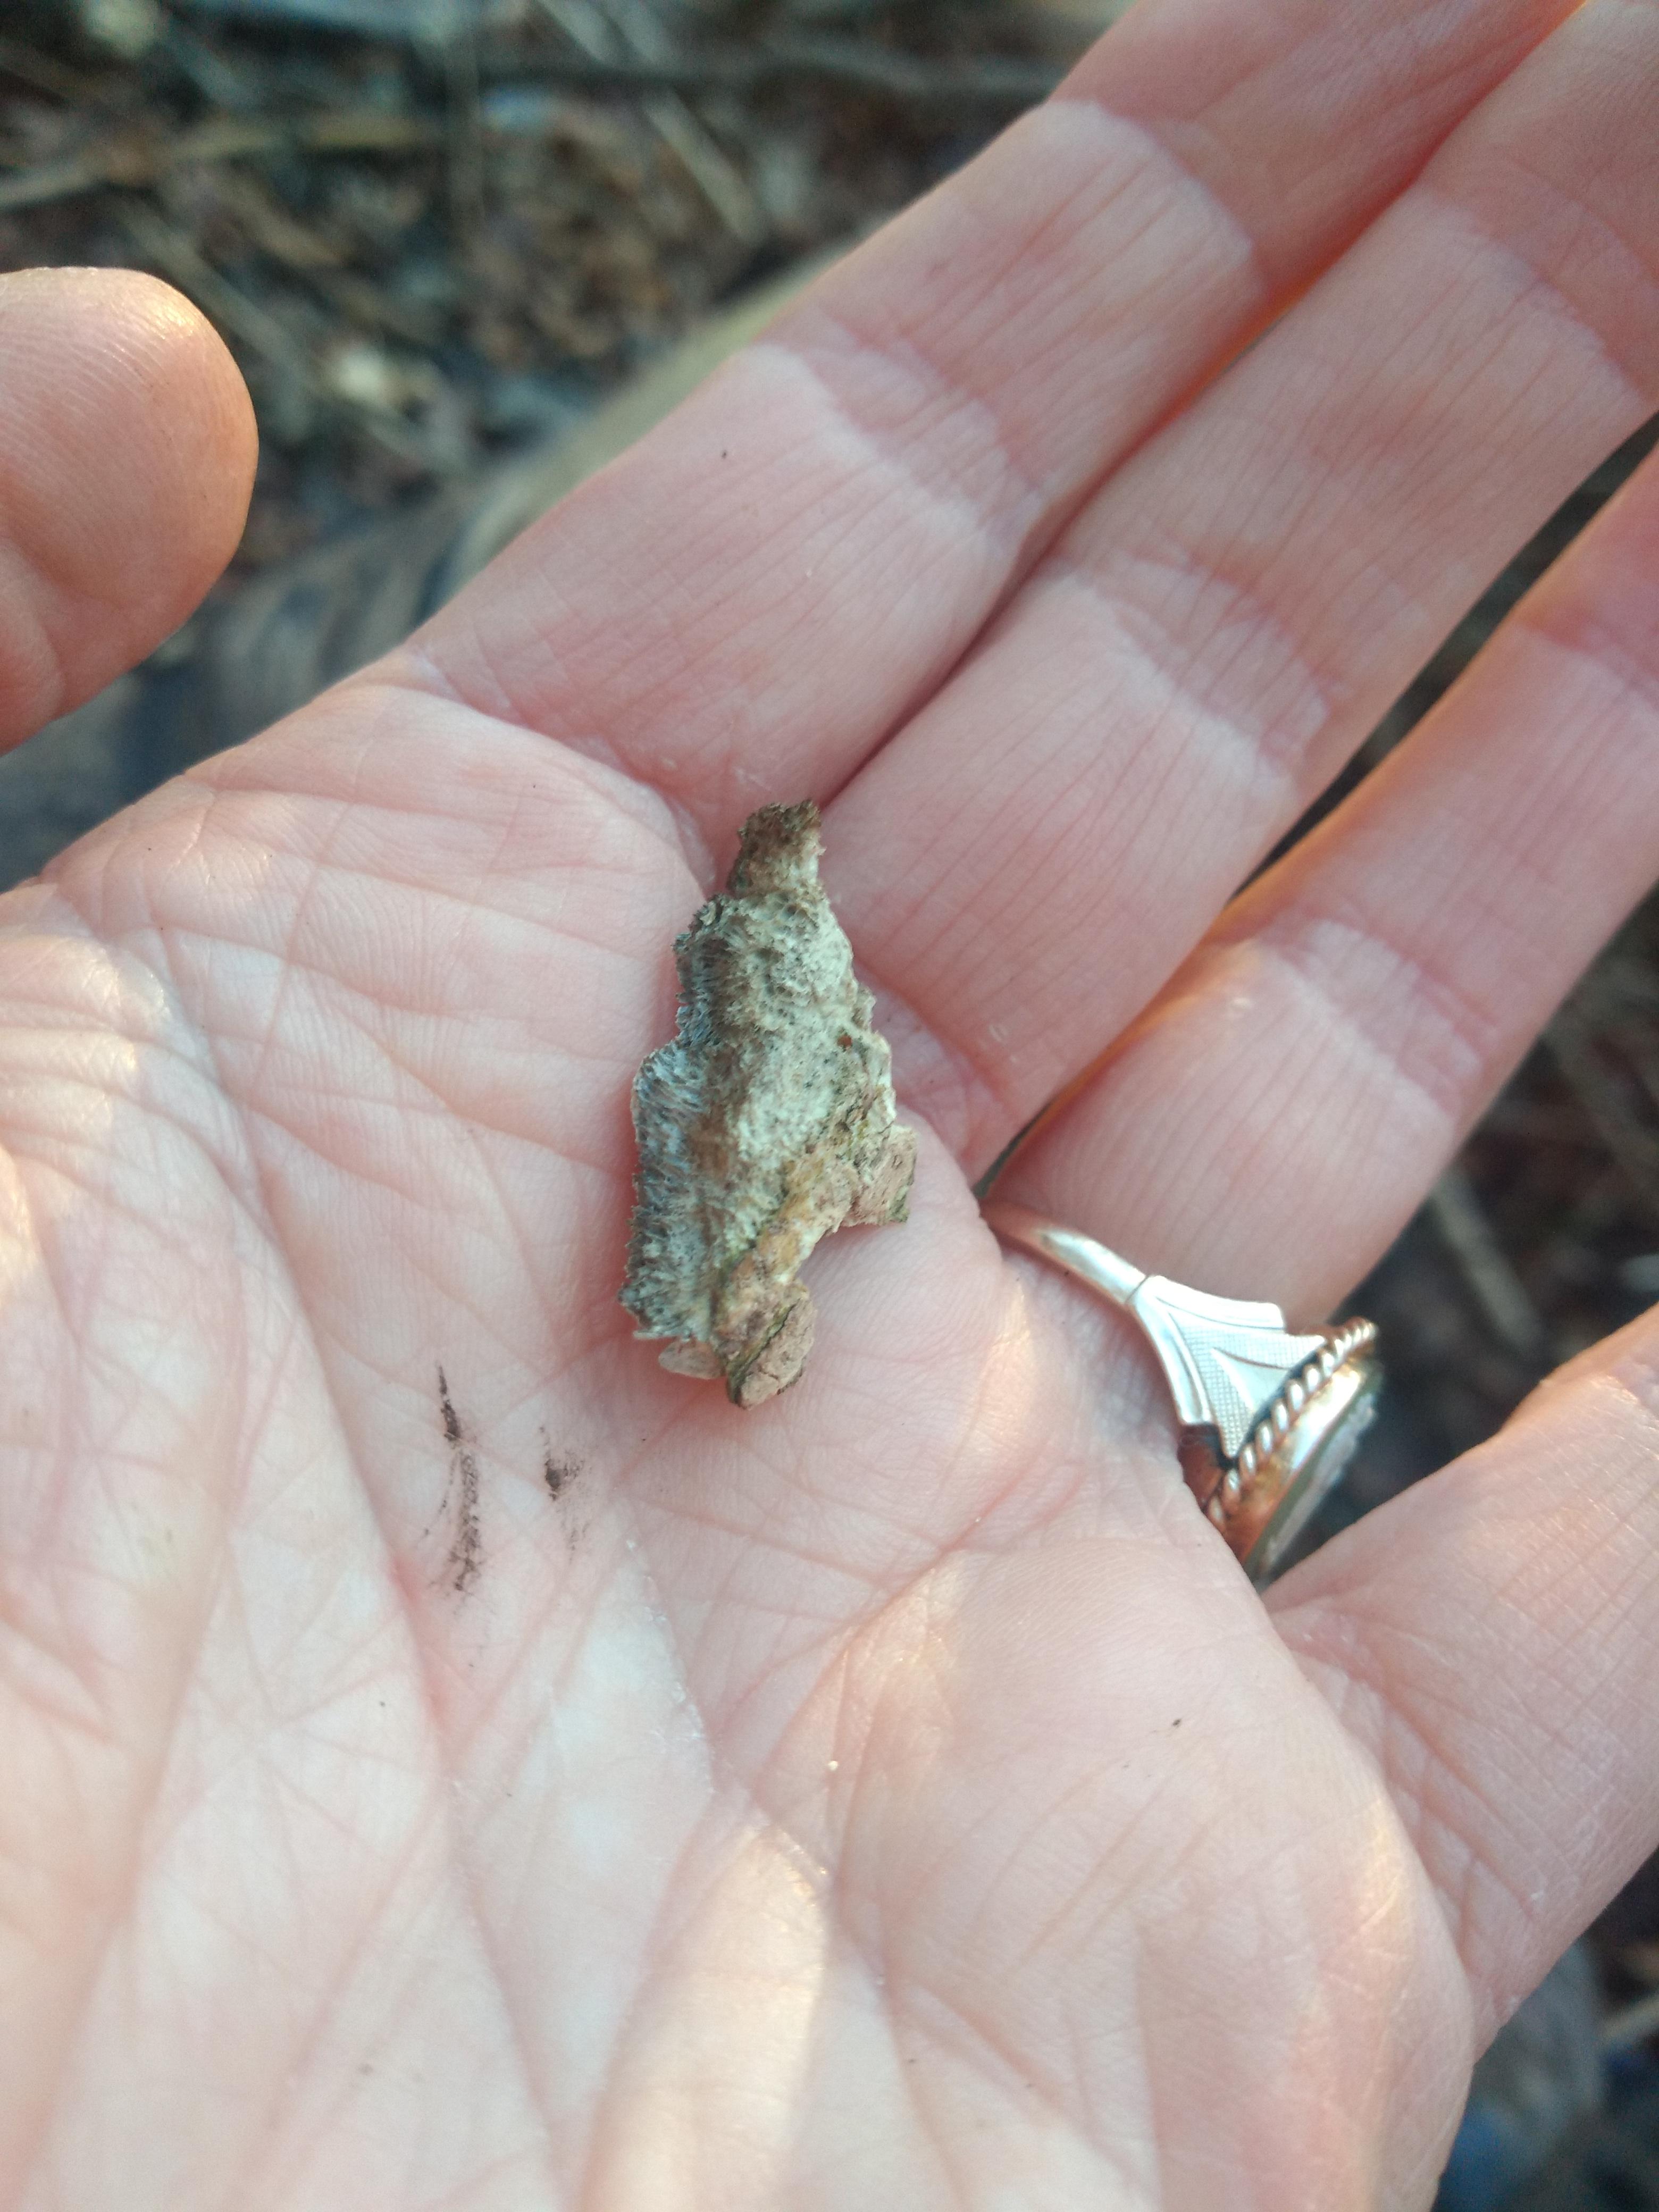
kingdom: Fungi
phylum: Basidiomycota
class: Agaricomycetes
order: Polyporales
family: Phanerochaetaceae
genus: Bjerkandera
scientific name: Bjerkandera adusta
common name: sveden sodporesvamp
